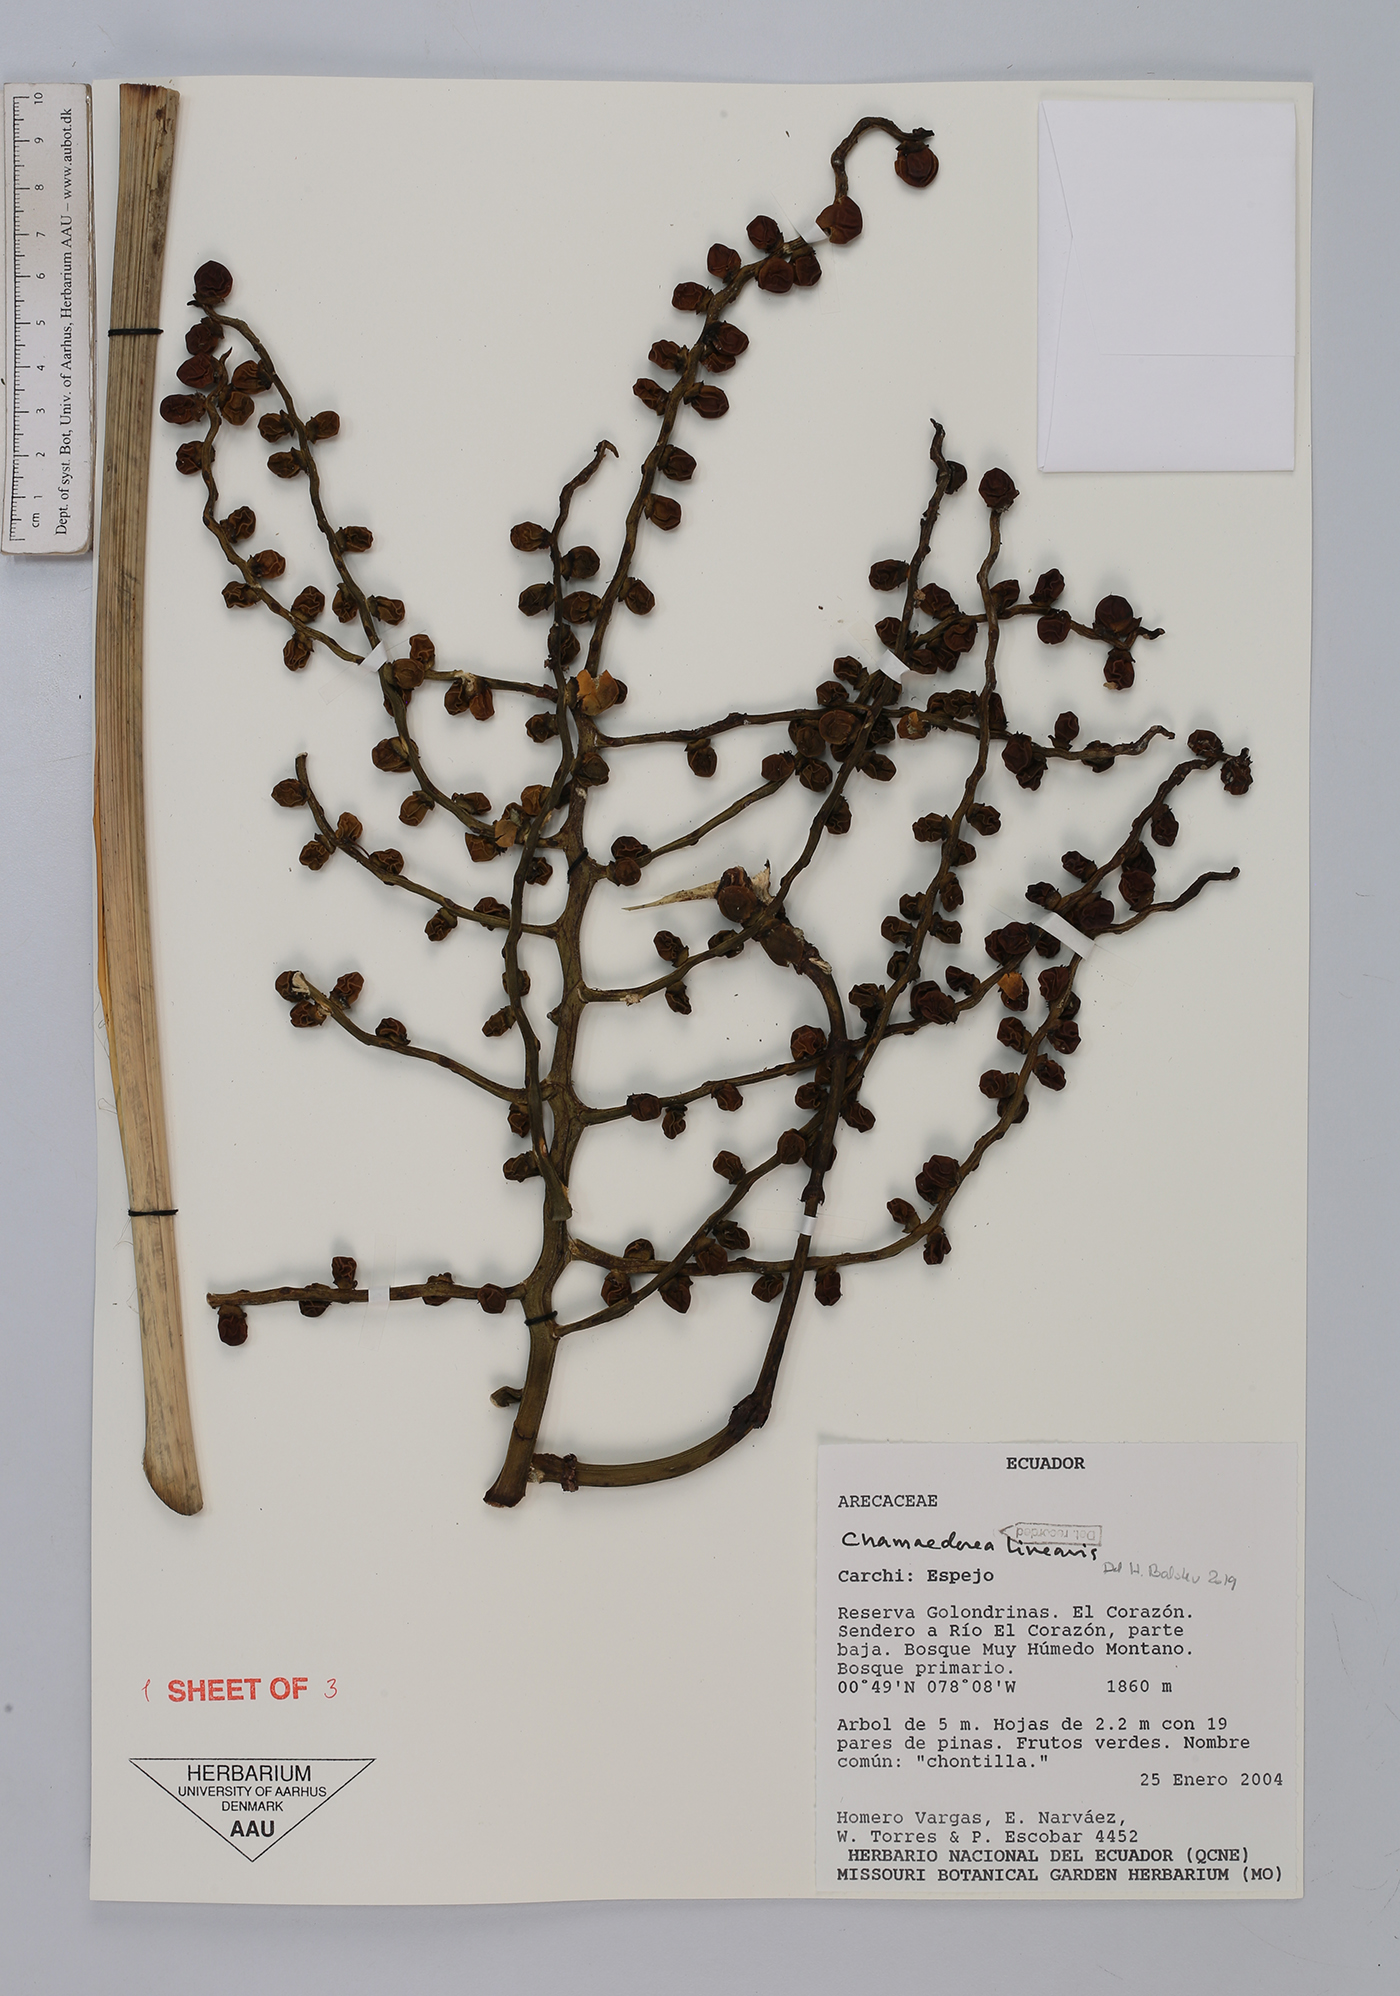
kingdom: Plantae
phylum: Tracheophyta
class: Liliopsida
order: Arecales
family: Arecaceae
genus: Chamaedorea
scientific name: Chamaedorea linearis
